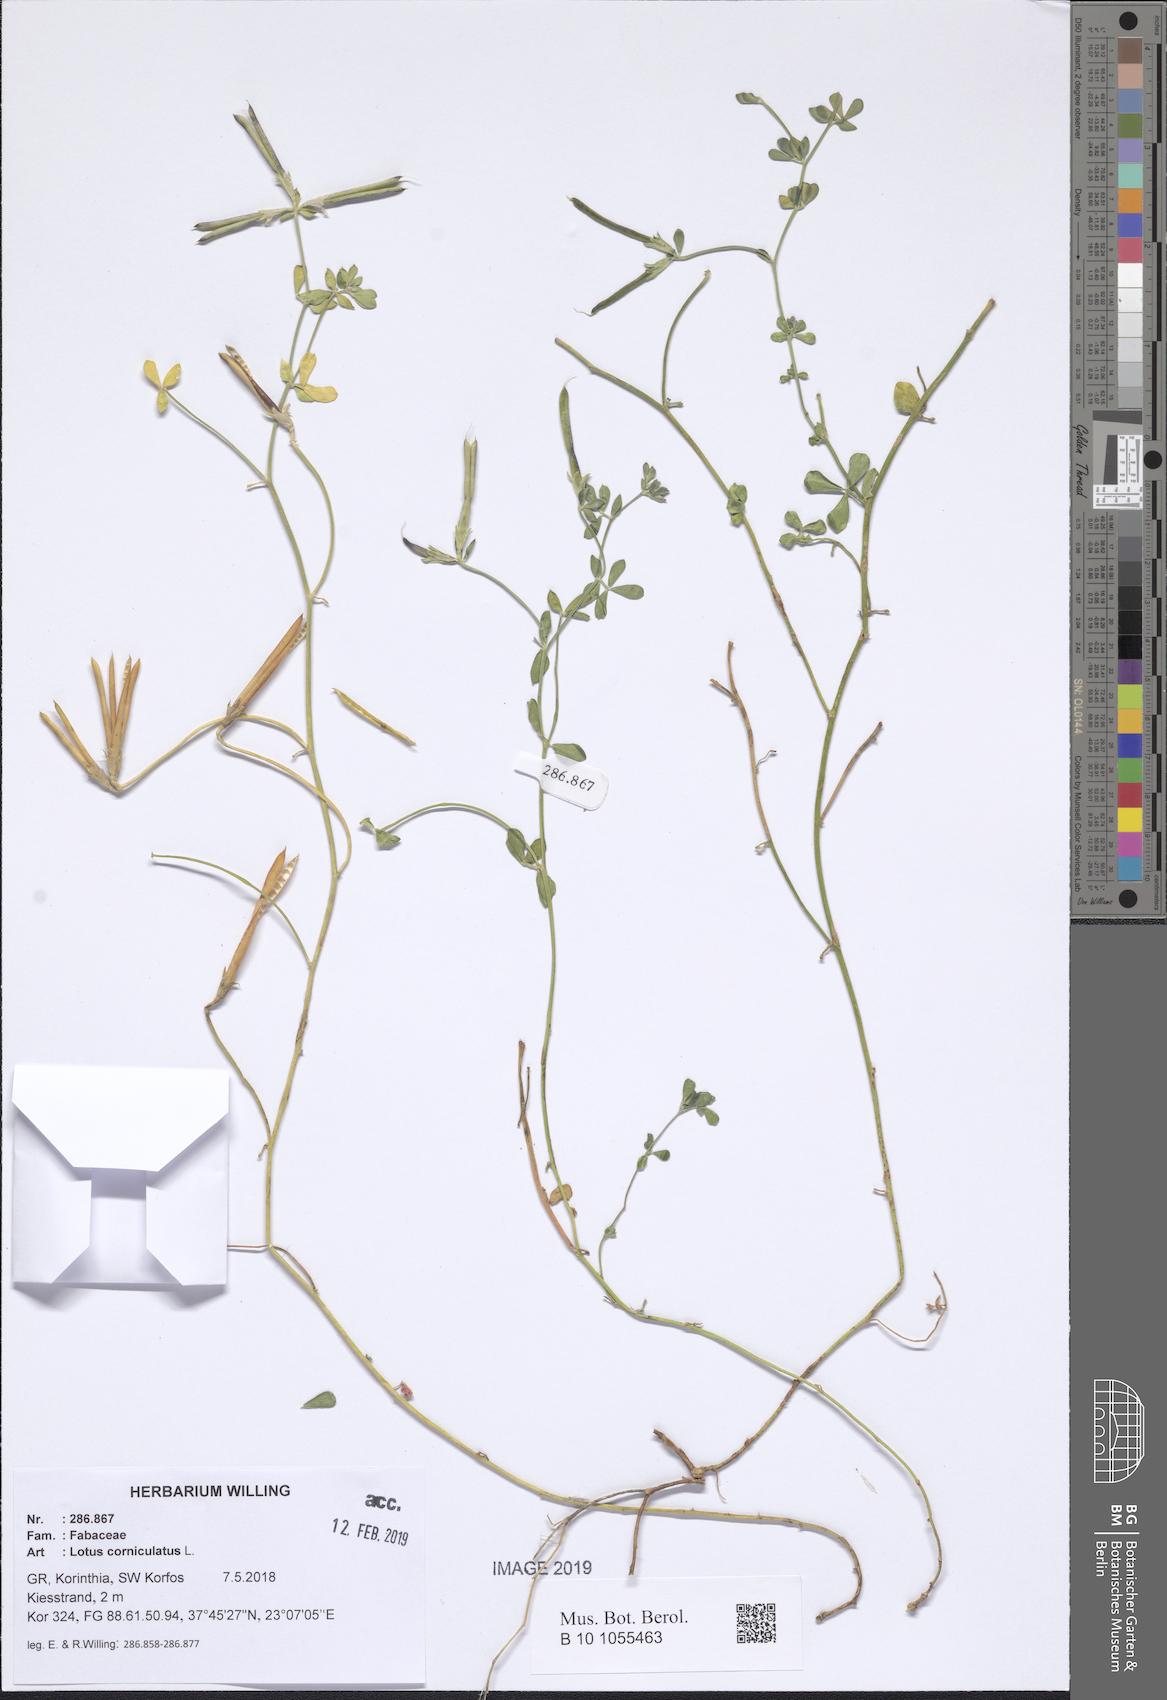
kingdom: Plantae
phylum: Tracheophyta
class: Magnoliopsida
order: Fabales
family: Fabaceae
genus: Lotus
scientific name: Lotus corniculatus
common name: Common bird's-foot-trefoil
